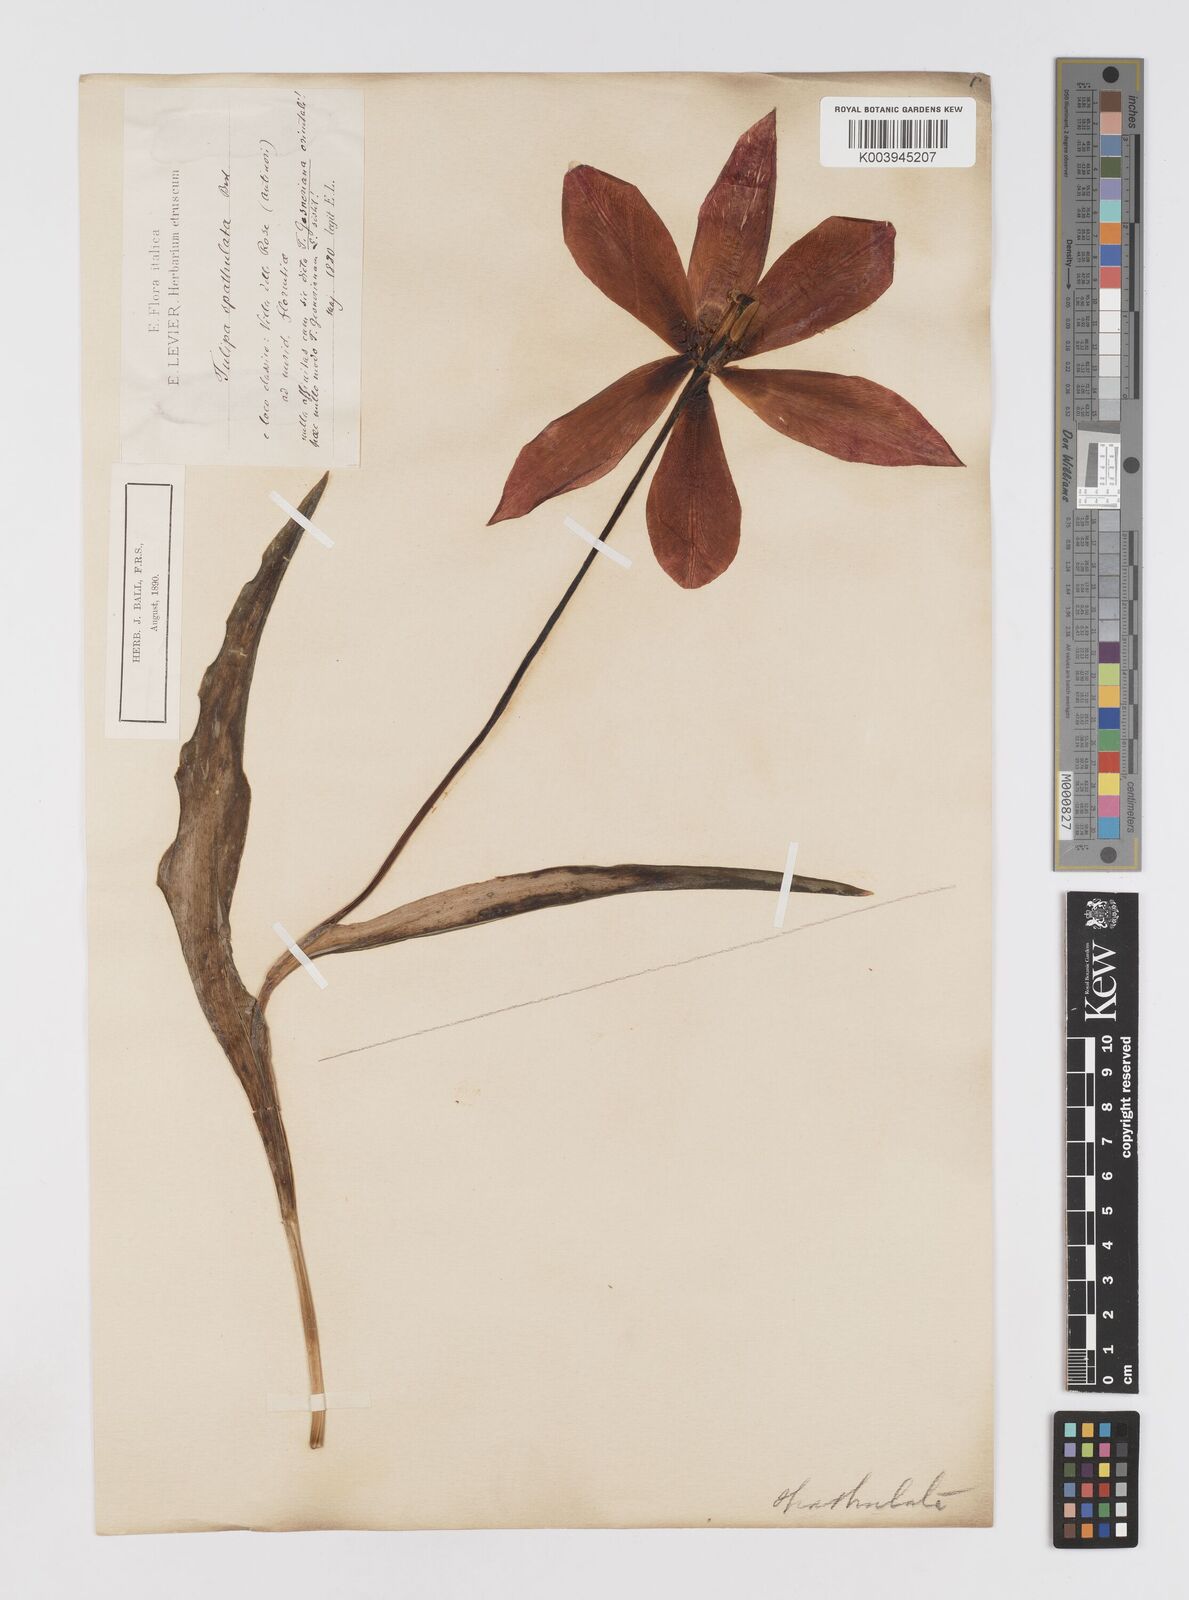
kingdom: Plantae
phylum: Tracheophyta
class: Liliopsida
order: Liliales
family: Liliaceae
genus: Tulipa
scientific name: Tulipa gesneriana
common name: Garden tulip
